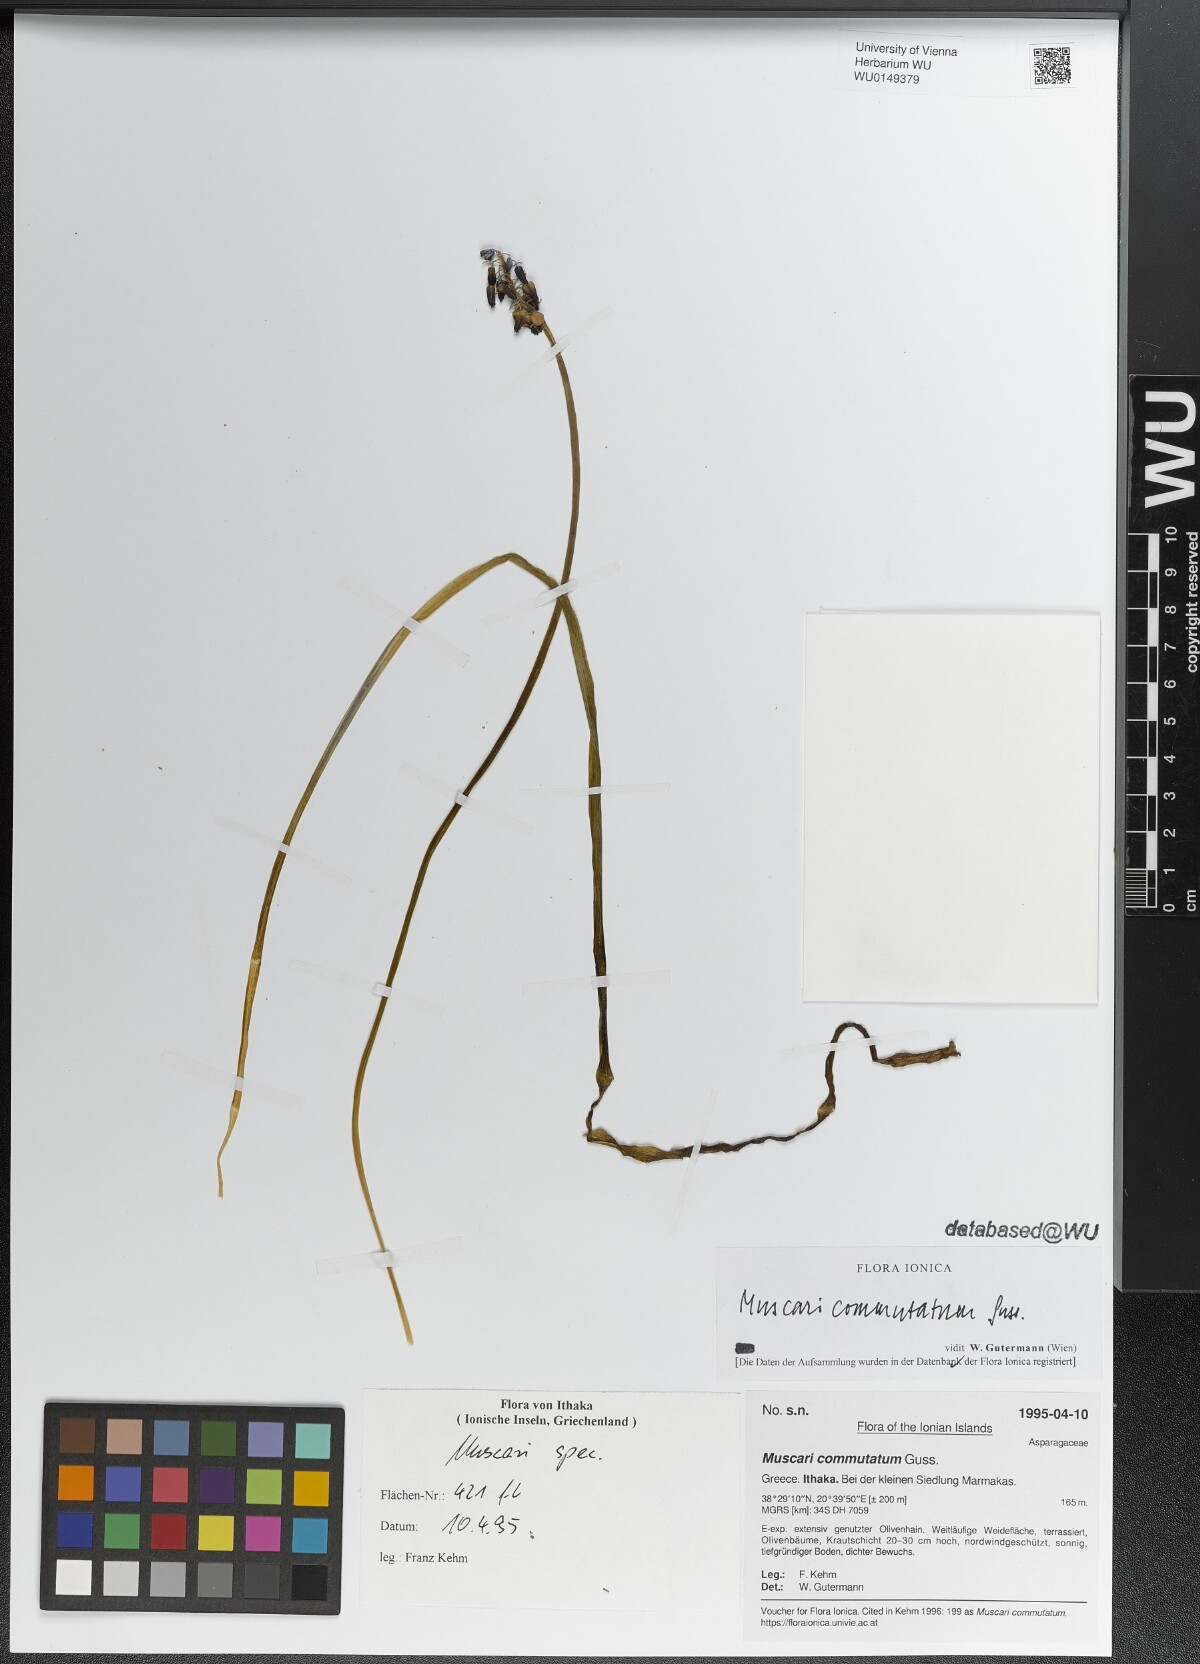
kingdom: Plantae
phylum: Tracheophyta
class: Liliopsida
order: Asparagales
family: Asparagaceae
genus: Muscari
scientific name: Muscari commutatum
